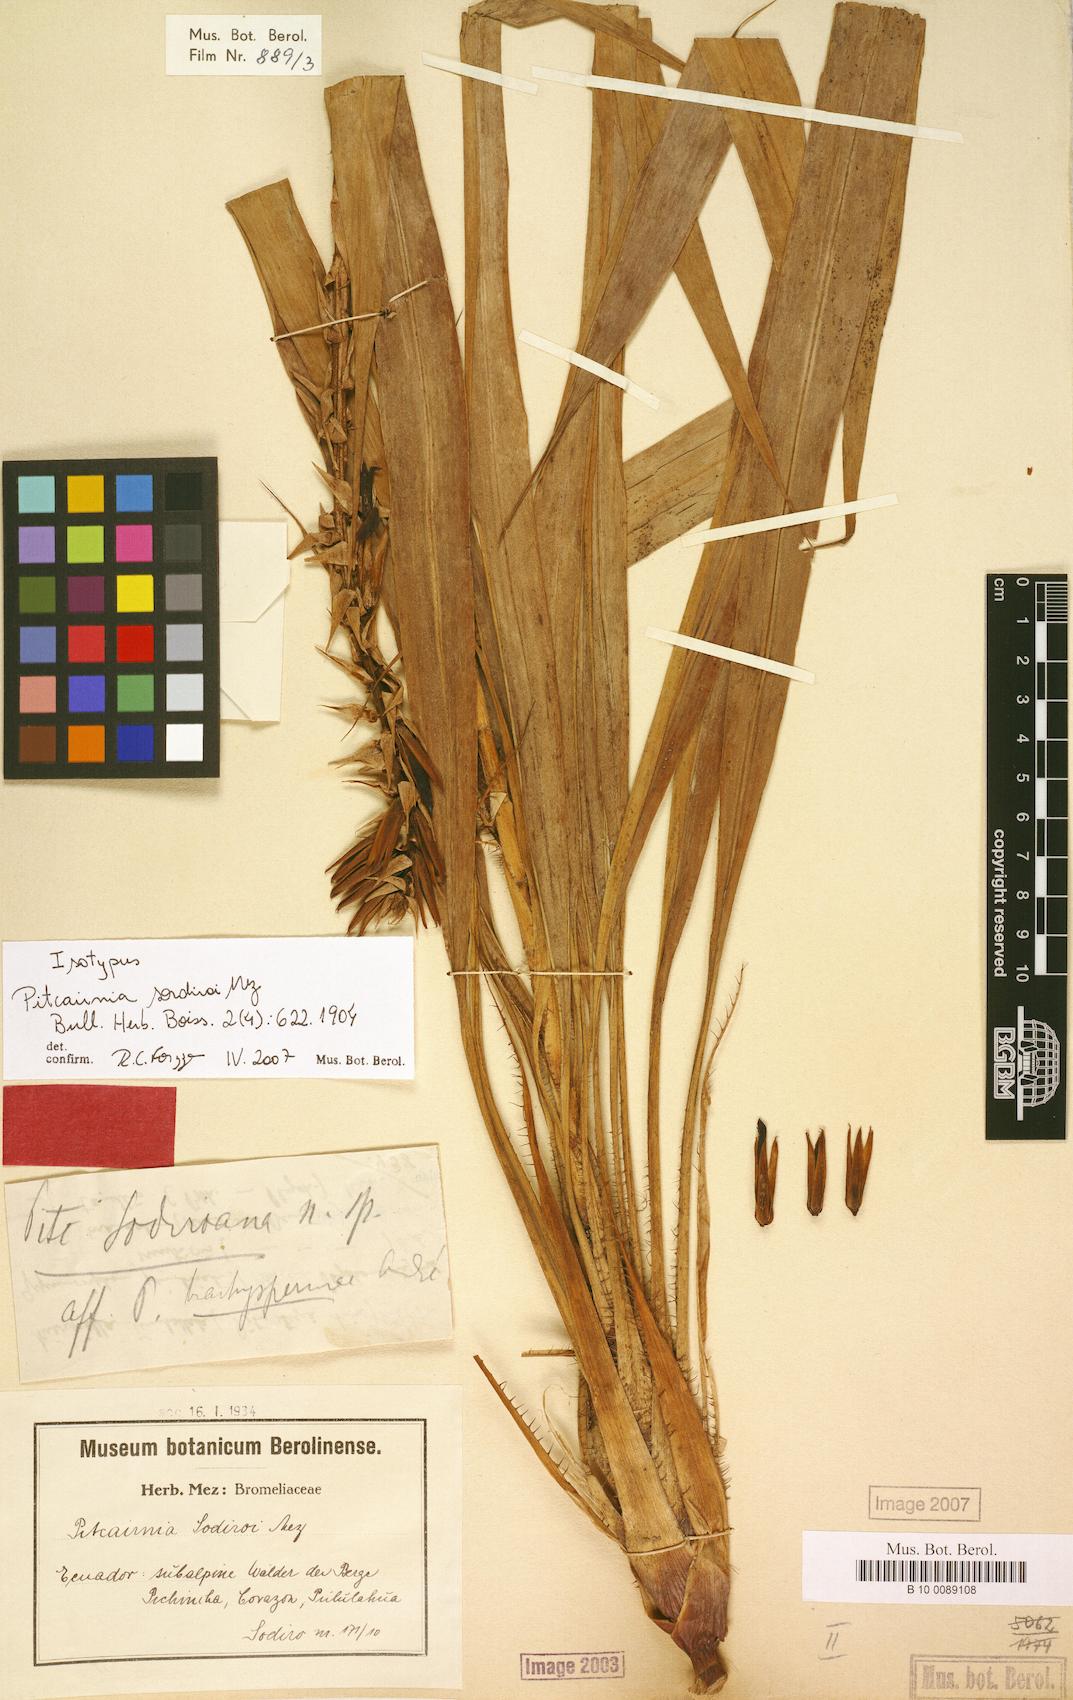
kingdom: Plantae
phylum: Tracheophyta
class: Liliopsida
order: Poales
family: Bromeliaceae
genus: Pitcairnia
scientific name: Pitcairnia sodiroi
